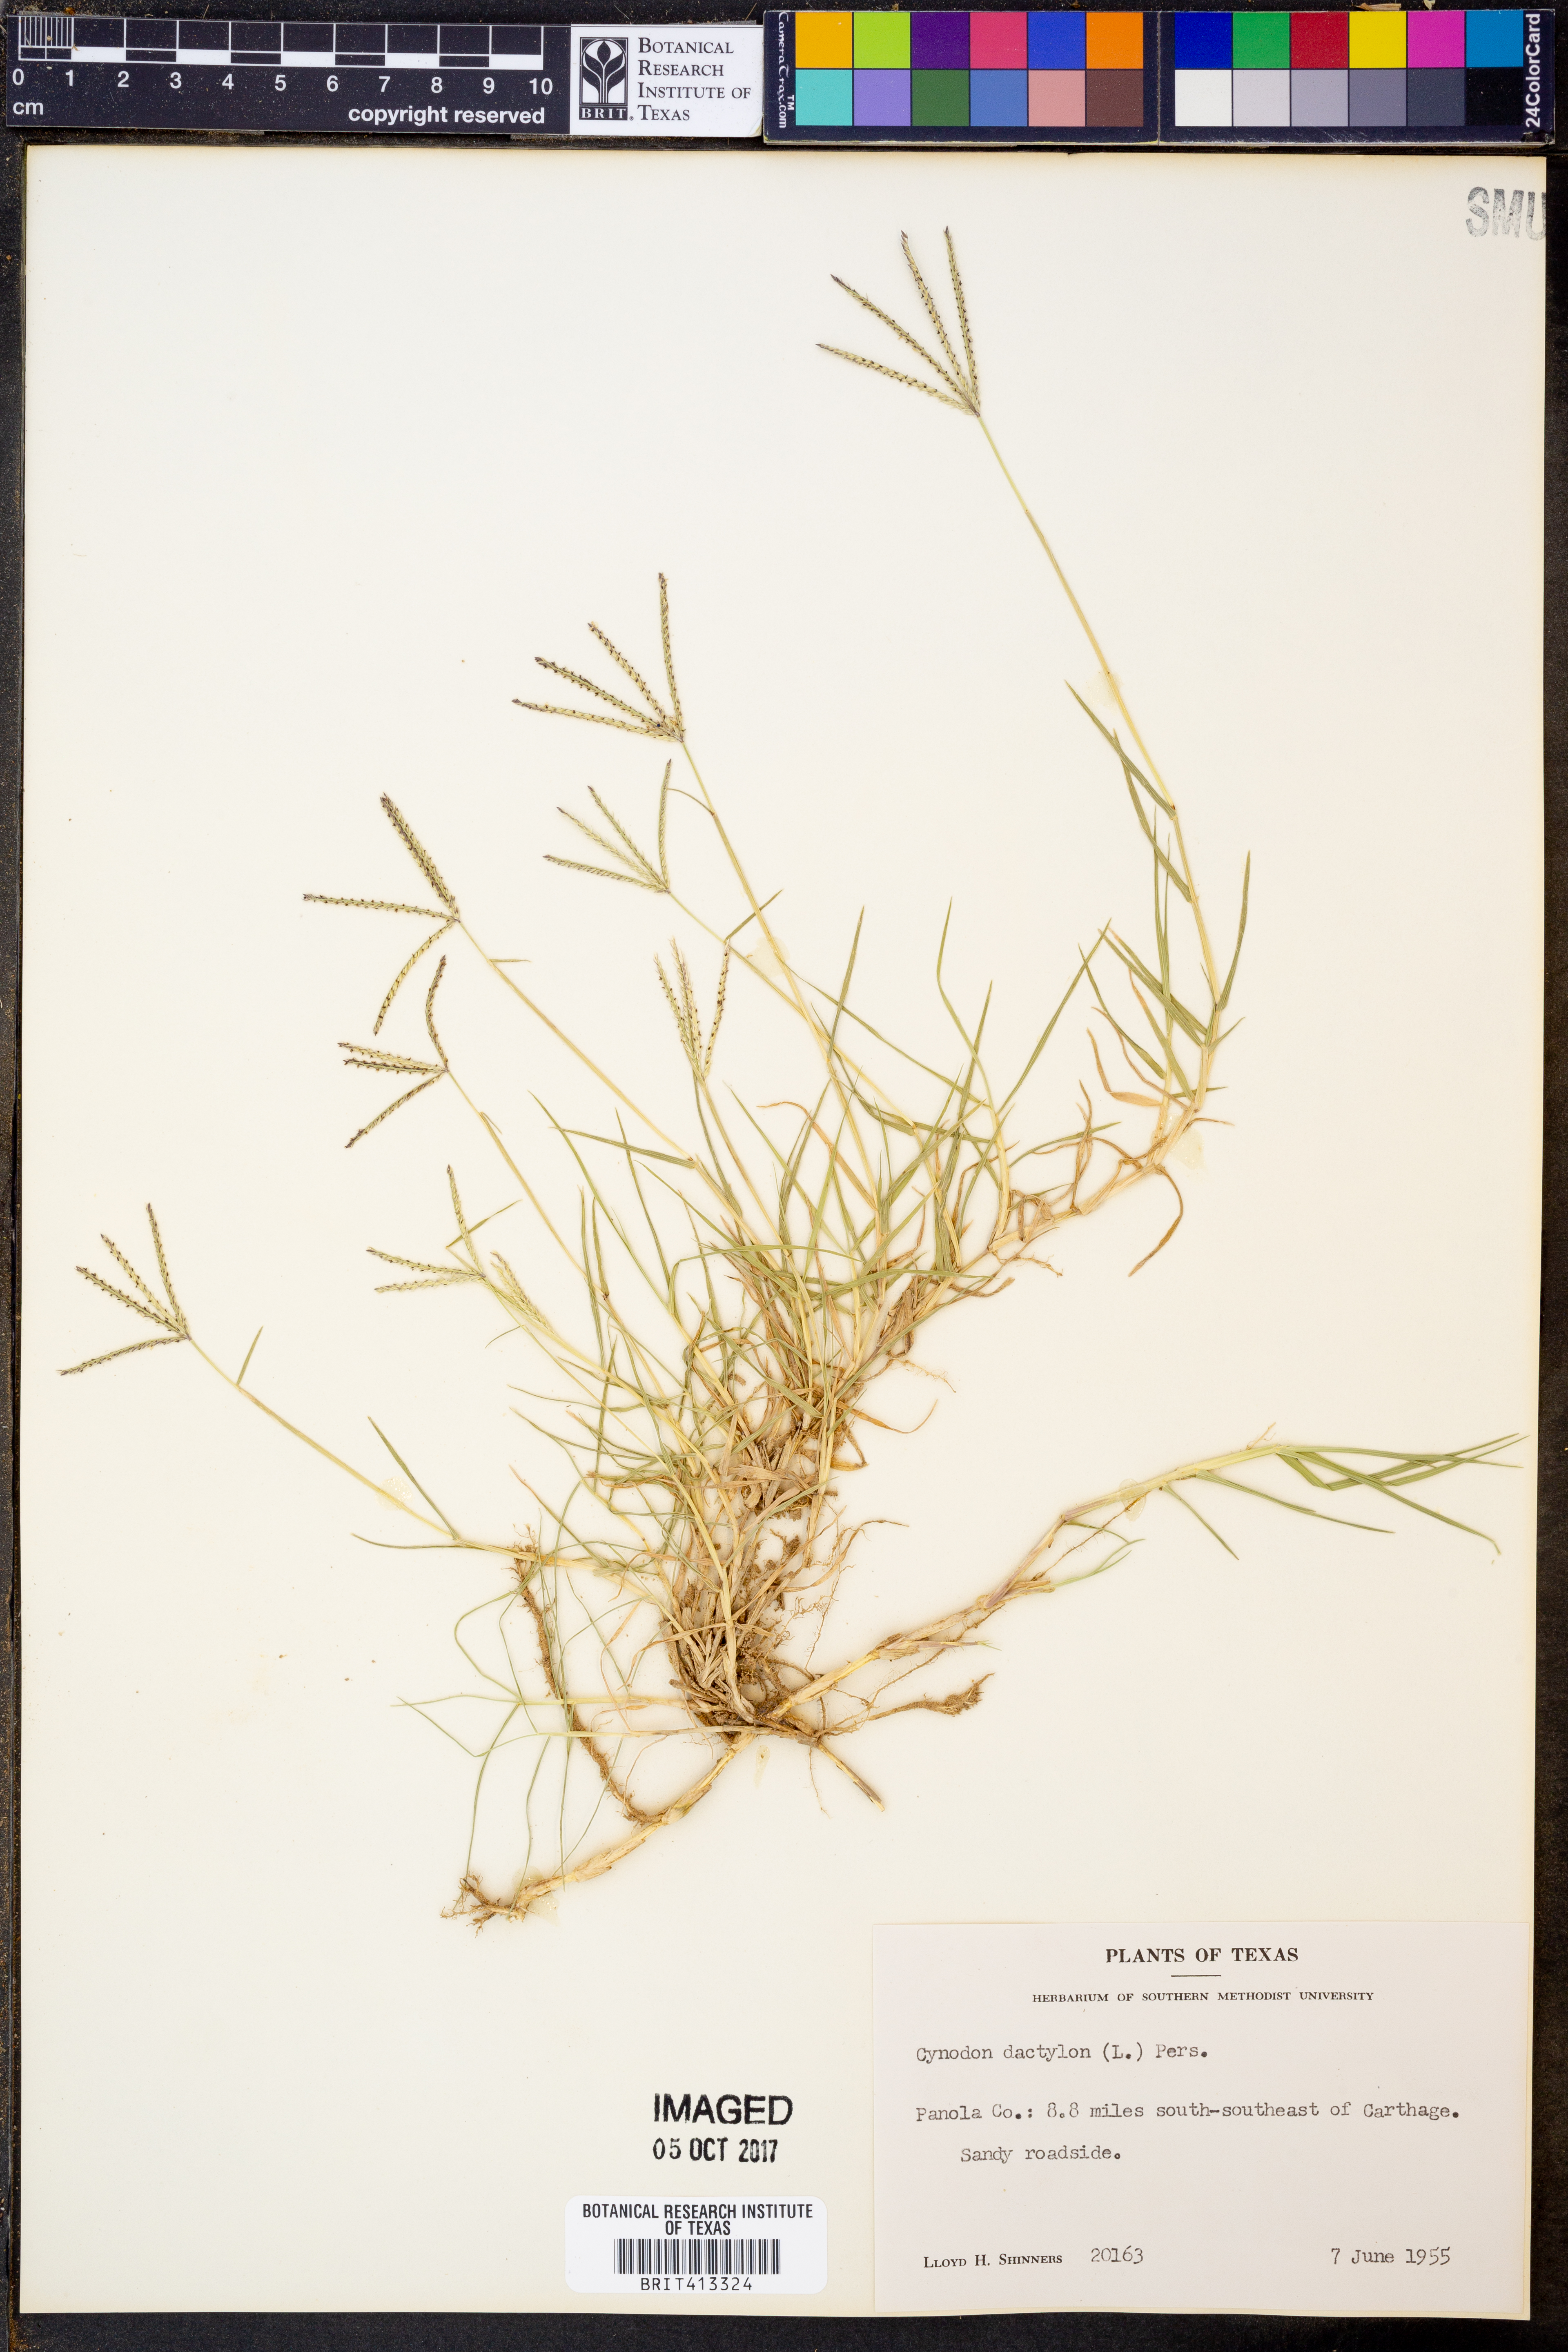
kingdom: Plantae
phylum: Tracheophyta
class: Liliopsida
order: Poales
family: Poaceae
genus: Cynodon
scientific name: Cynodon dactylon
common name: Bermuda grass
